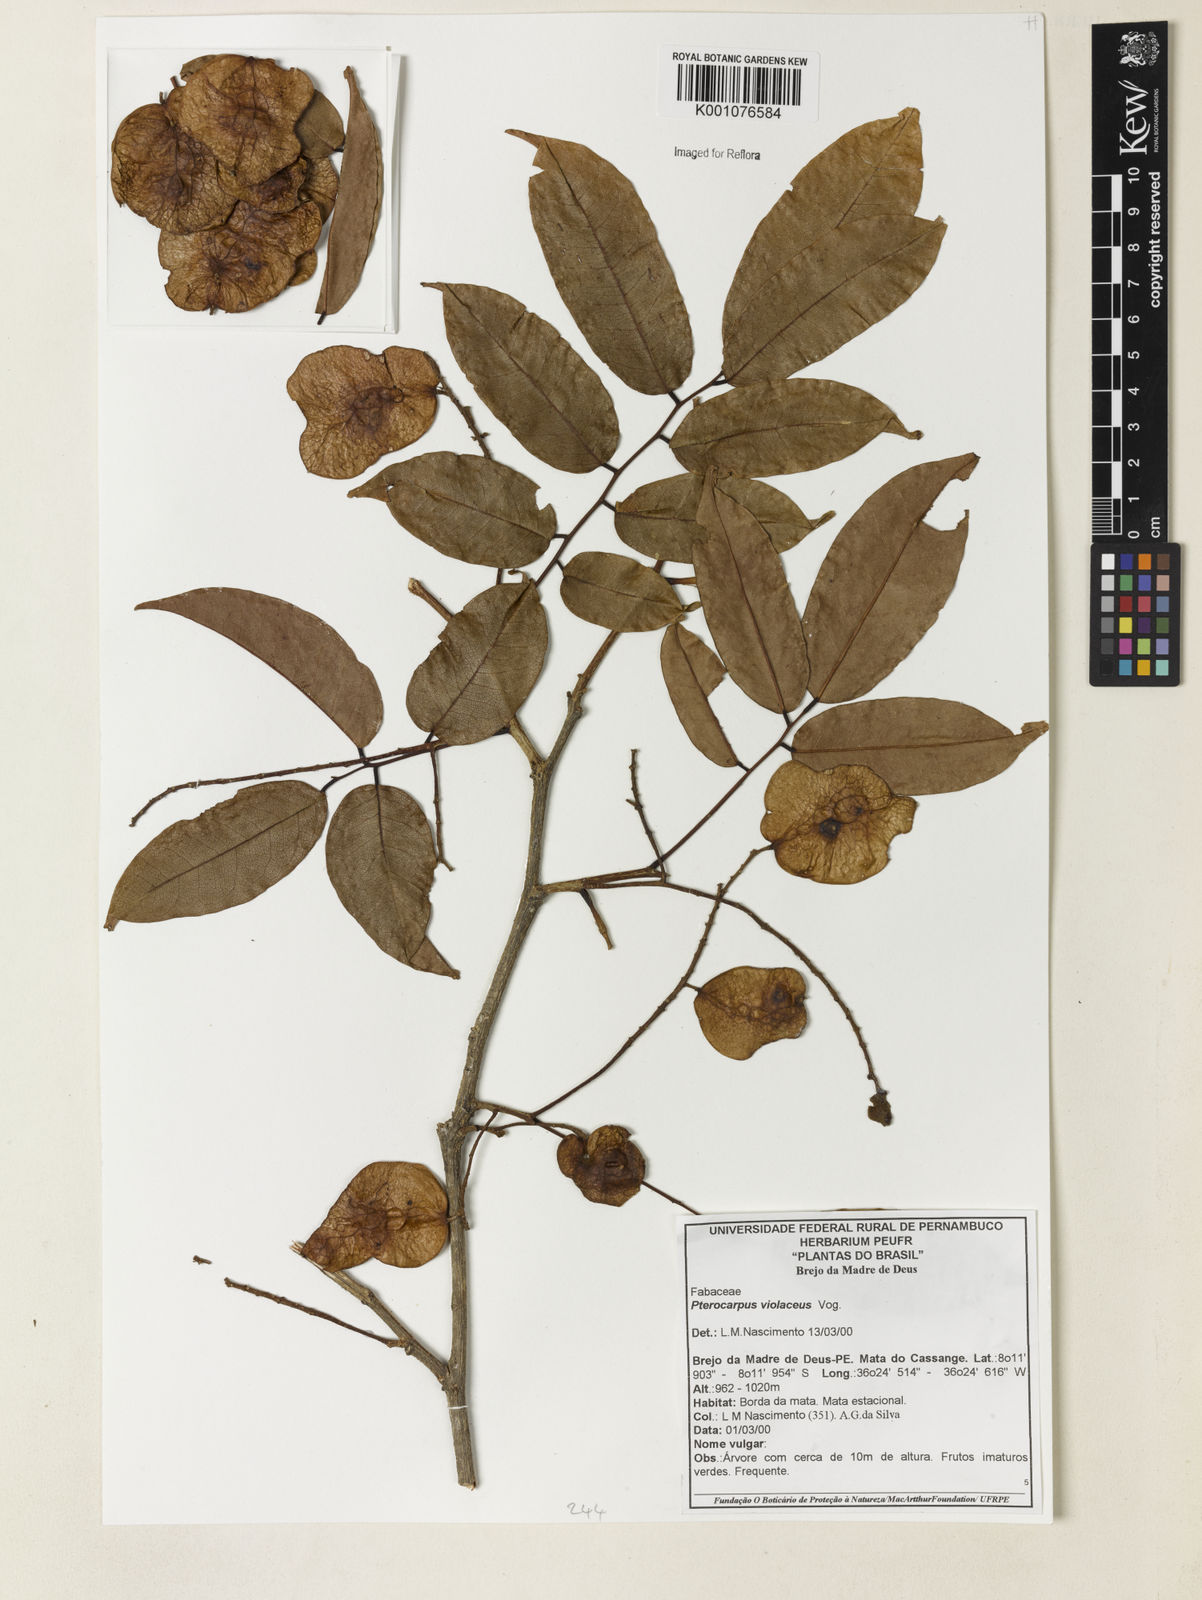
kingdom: Plantae
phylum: Tracheophyta
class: Magnoliopsida
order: Fabales
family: Fabaceae
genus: Pterocarpus
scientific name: Pterocarpus rohrii
